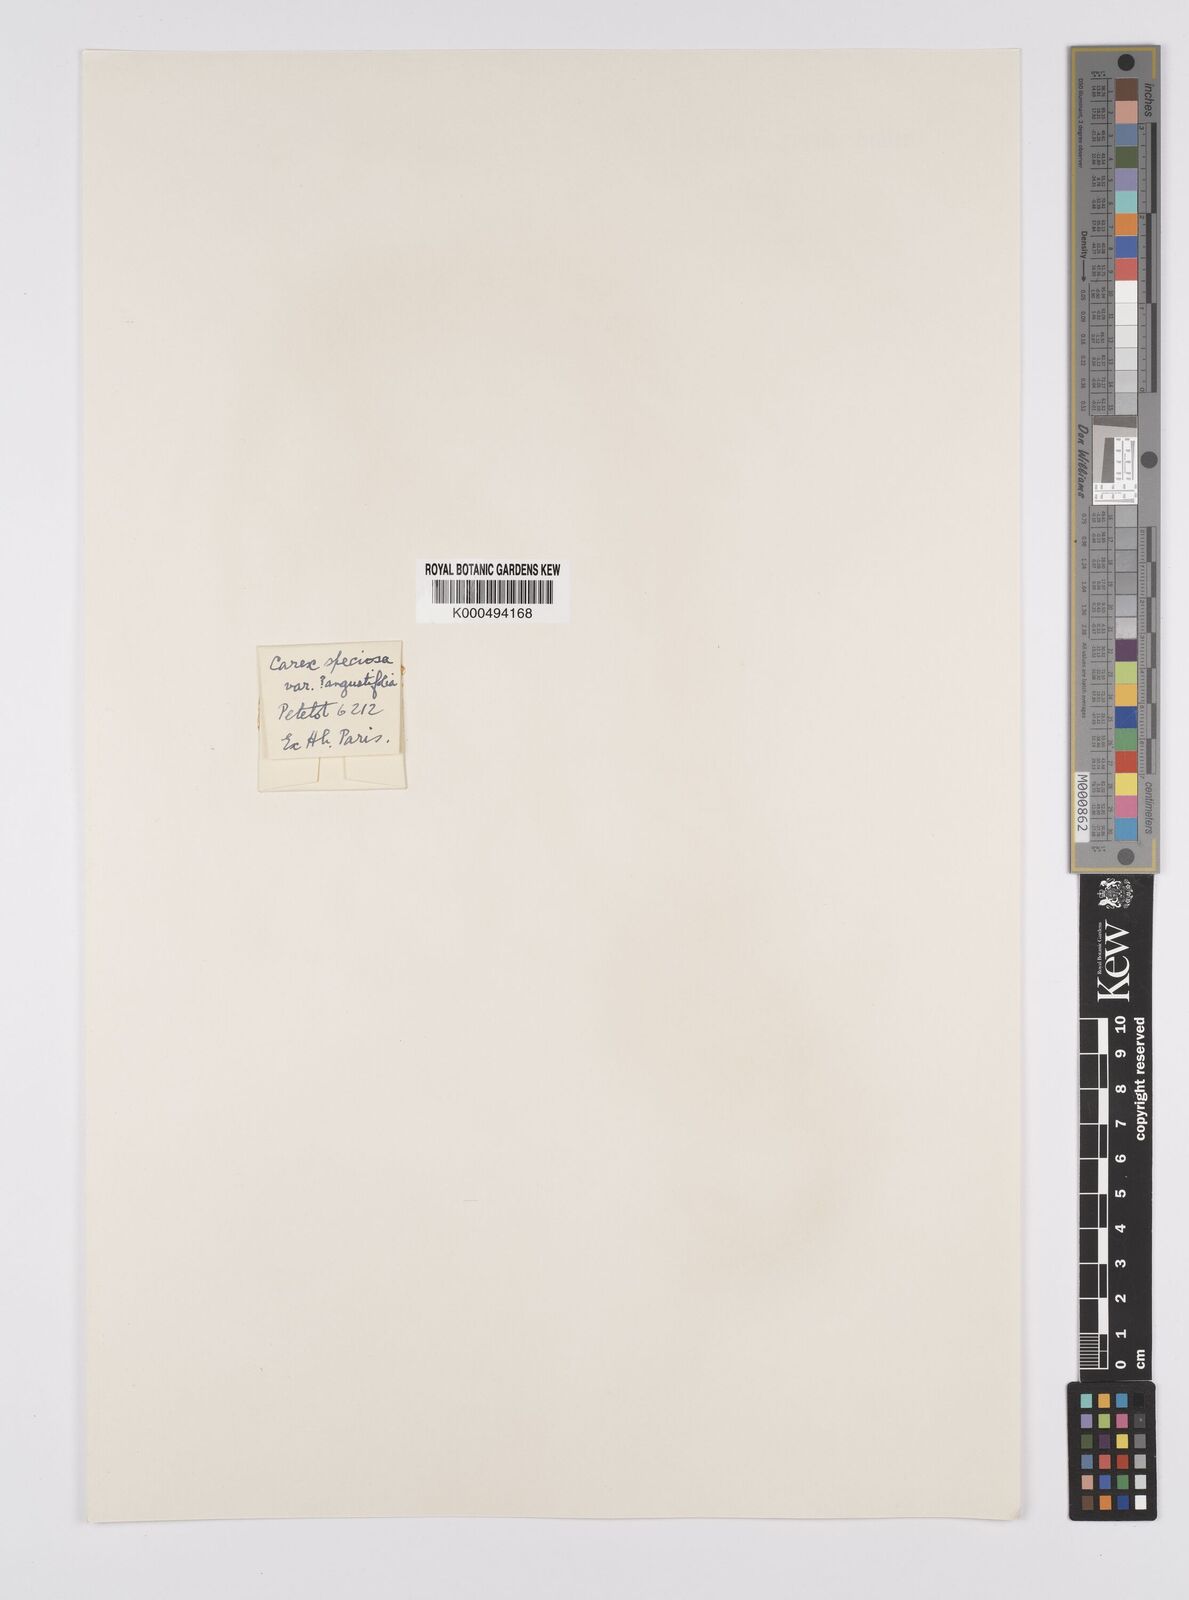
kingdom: Plantae
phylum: Tracheophyta
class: Liliopsida
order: Poales
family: Cyperaceae
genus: Carex
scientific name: Carex speciosa
